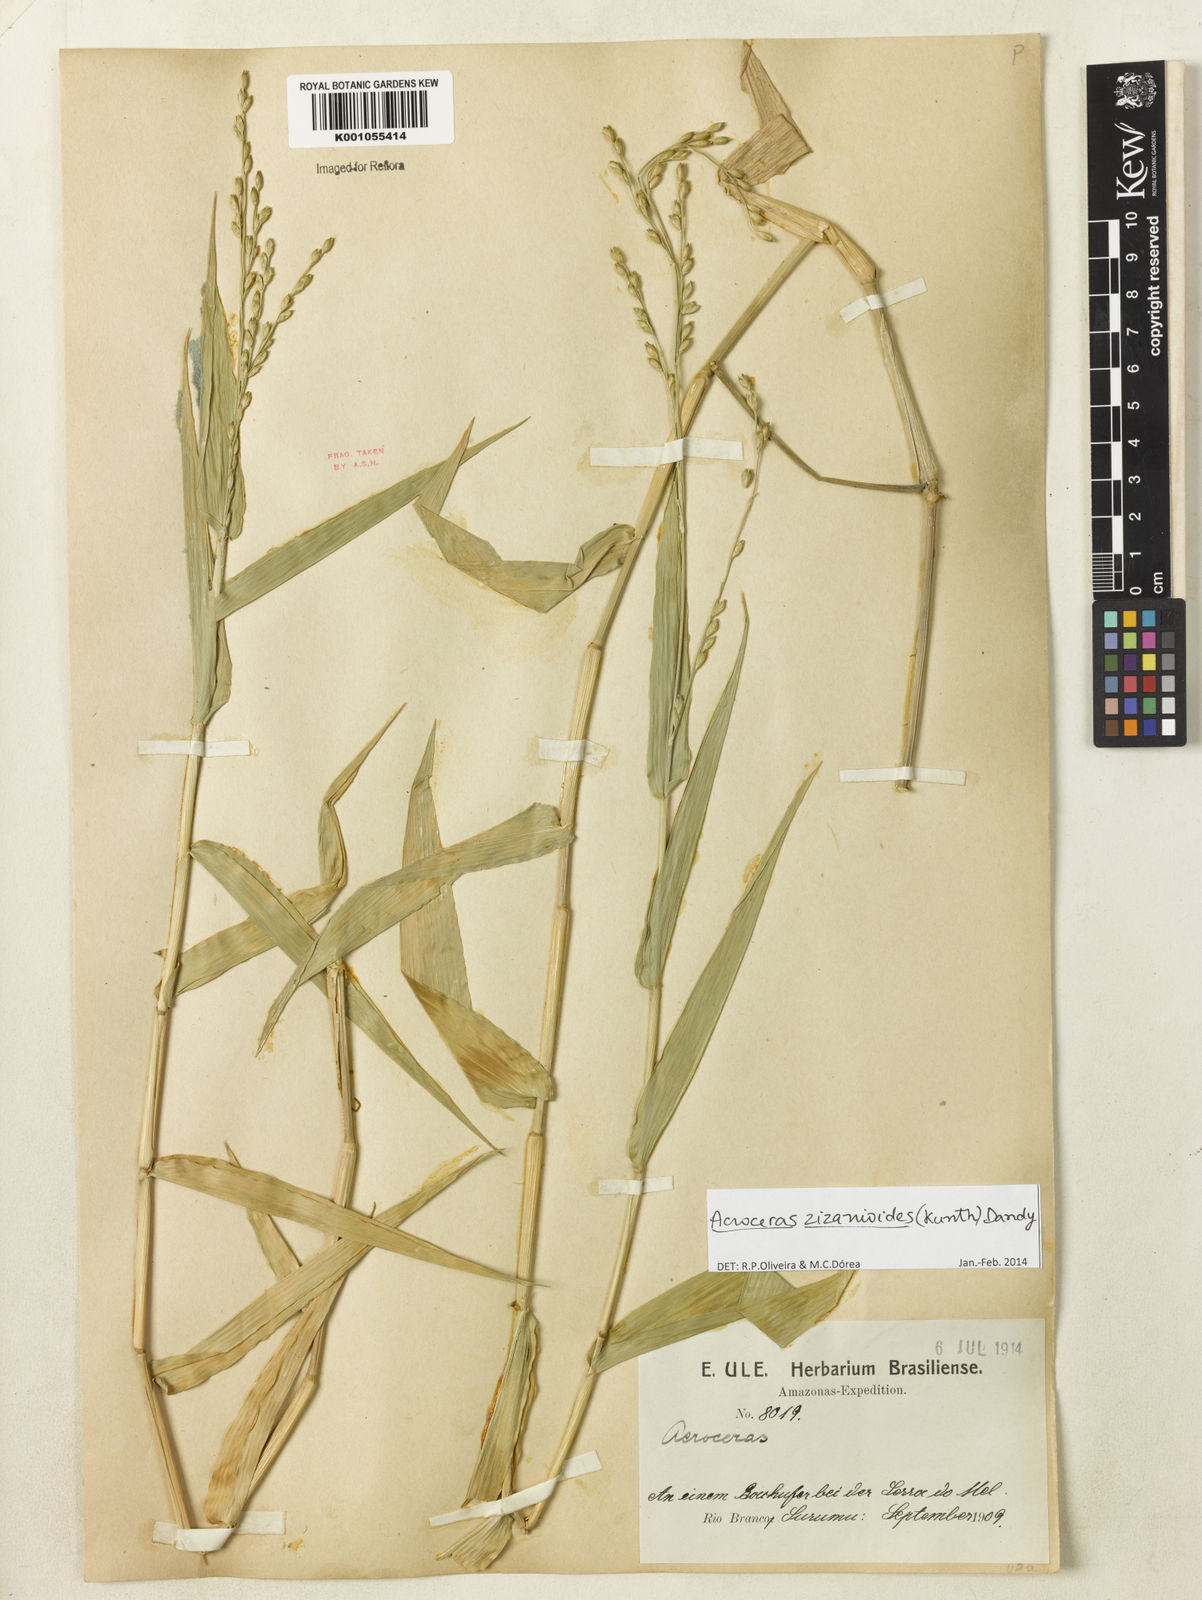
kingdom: Plantae
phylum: Tracheophyta
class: Liliopsida
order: Poales
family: Poaceae
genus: Acroceras
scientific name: Acroceras zizanioides
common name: Oat grass
